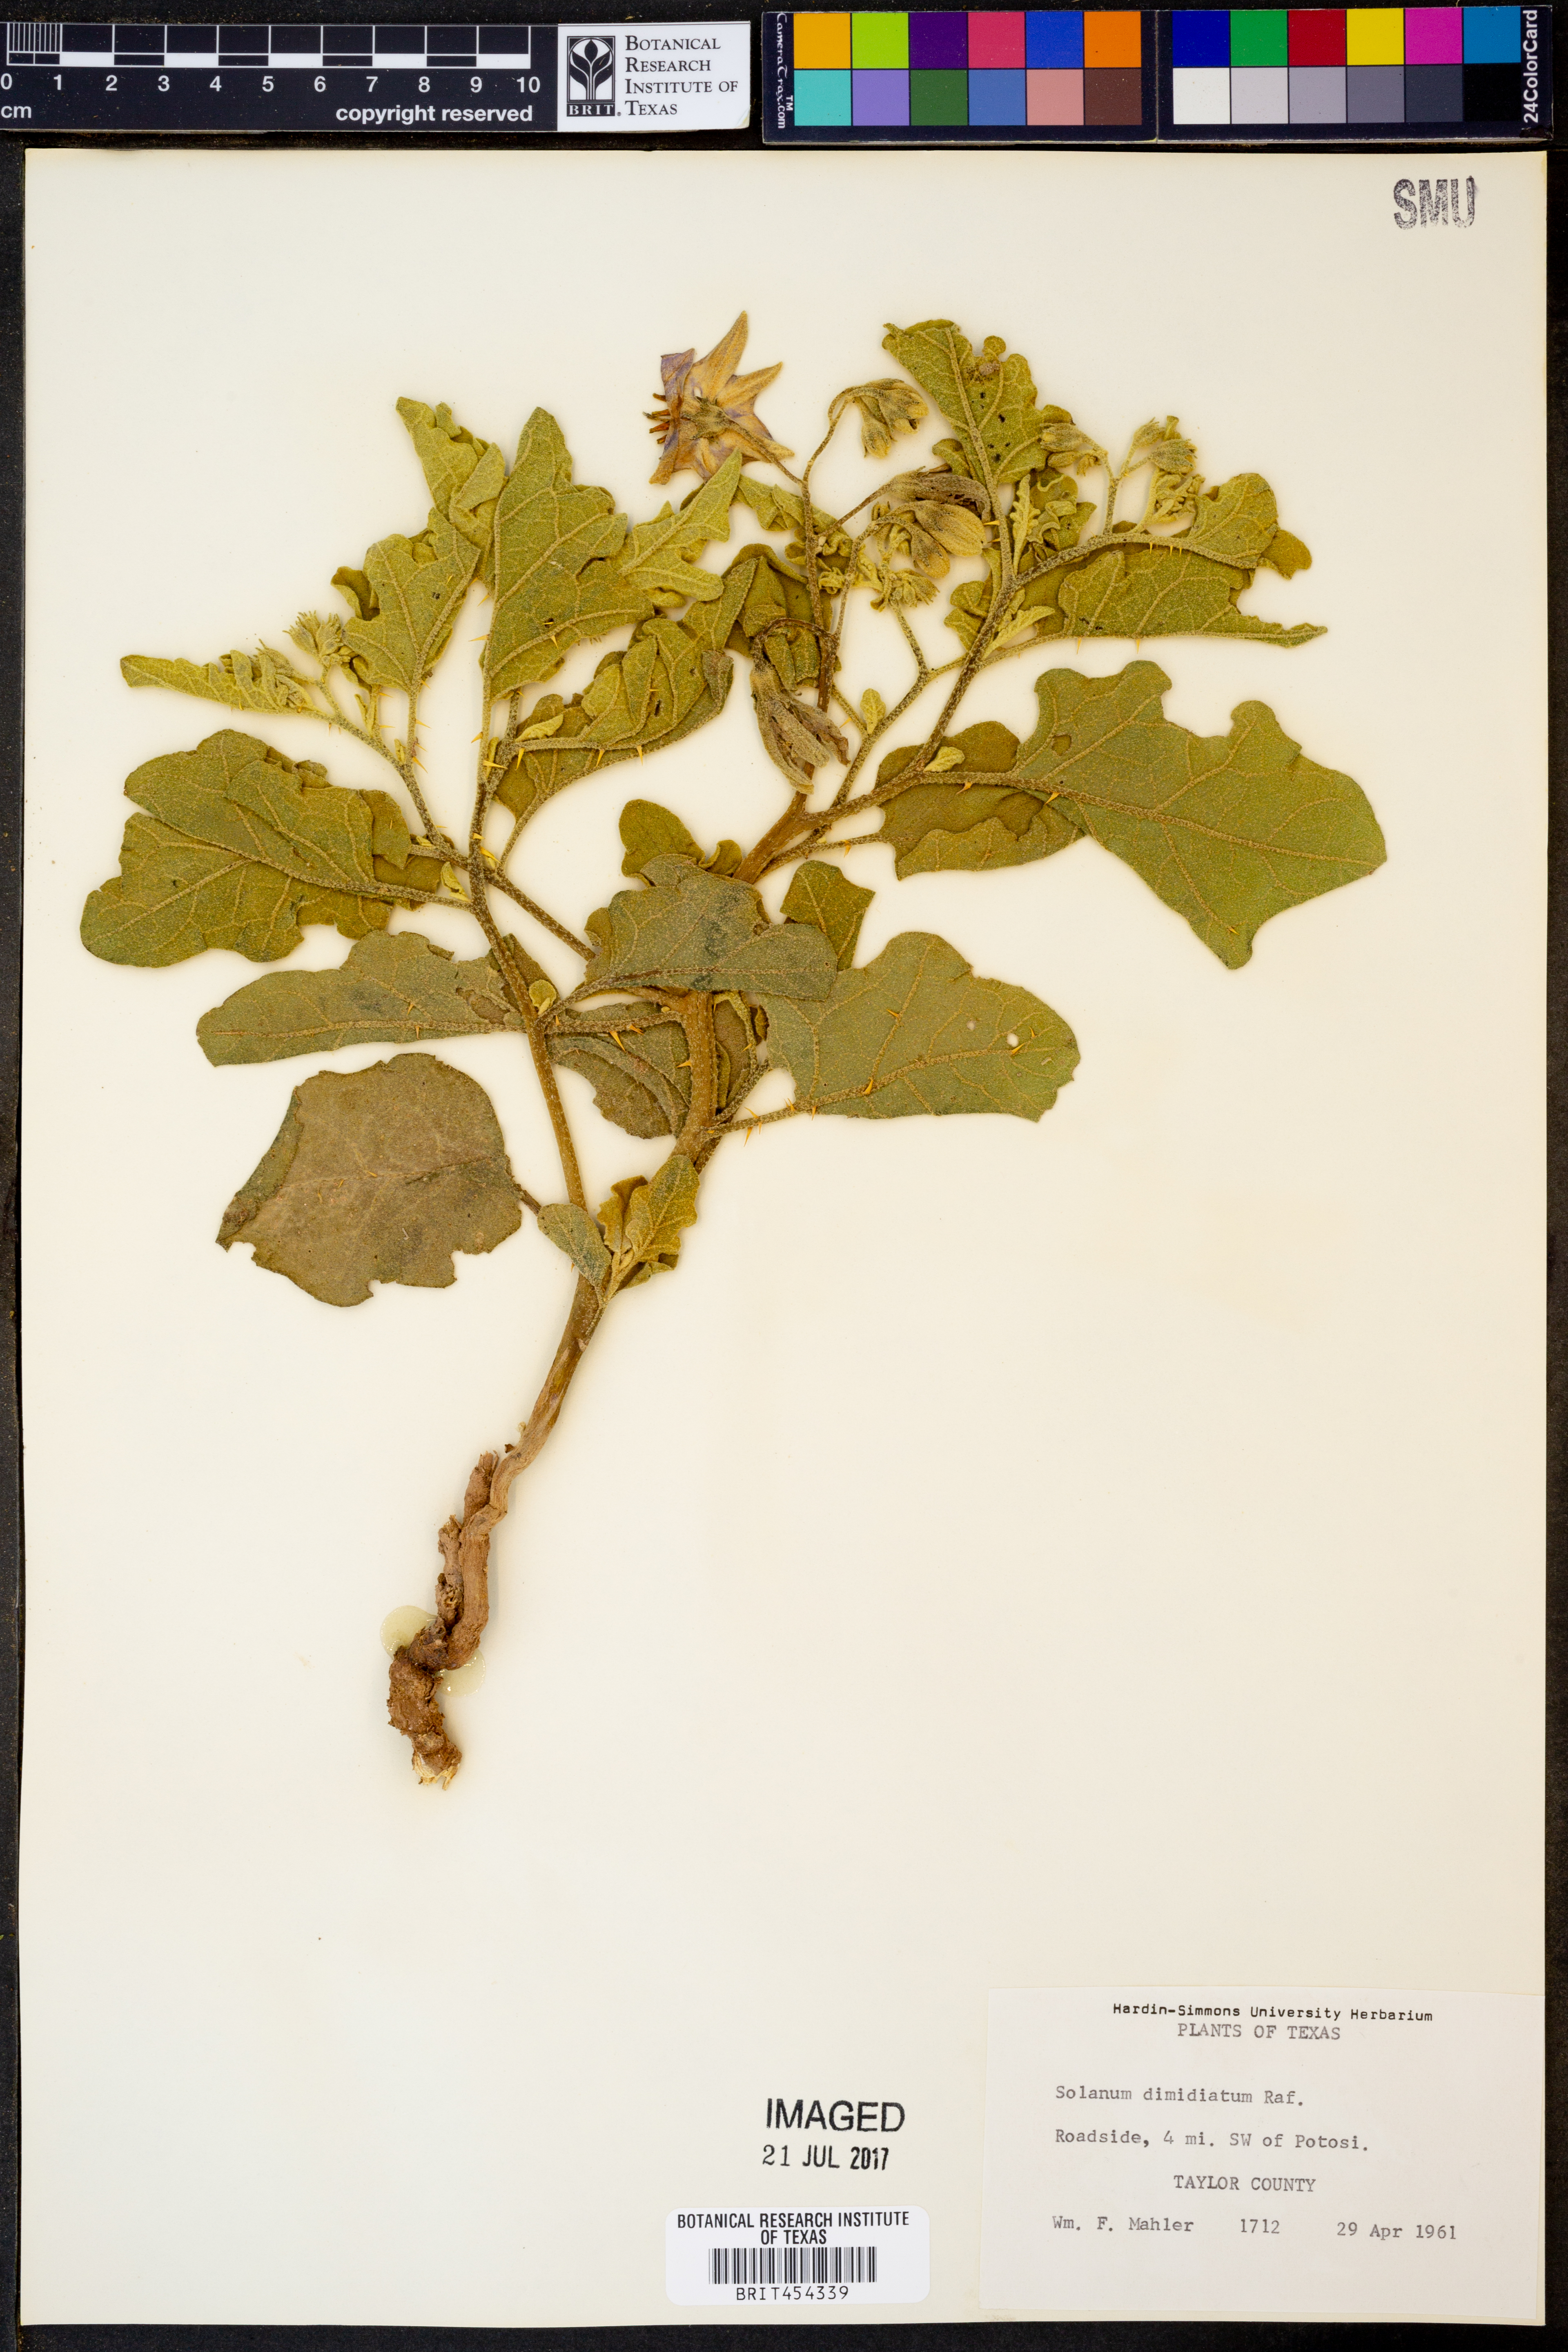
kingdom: Plantae
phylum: Tracheophyta
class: Magnoliopsida
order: Solanales
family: Solanaceae
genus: Solanum
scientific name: Solanum dimidiatum
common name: Carolina horse-nettle
